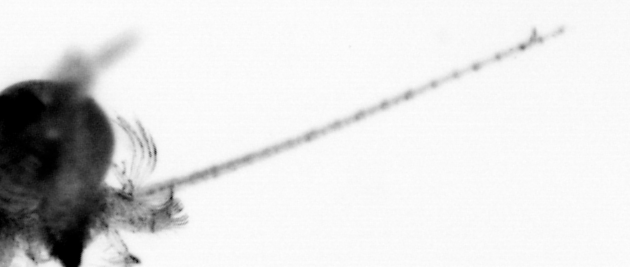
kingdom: Animalia
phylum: Arthropoda
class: Copepoda
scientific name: Copepoda
